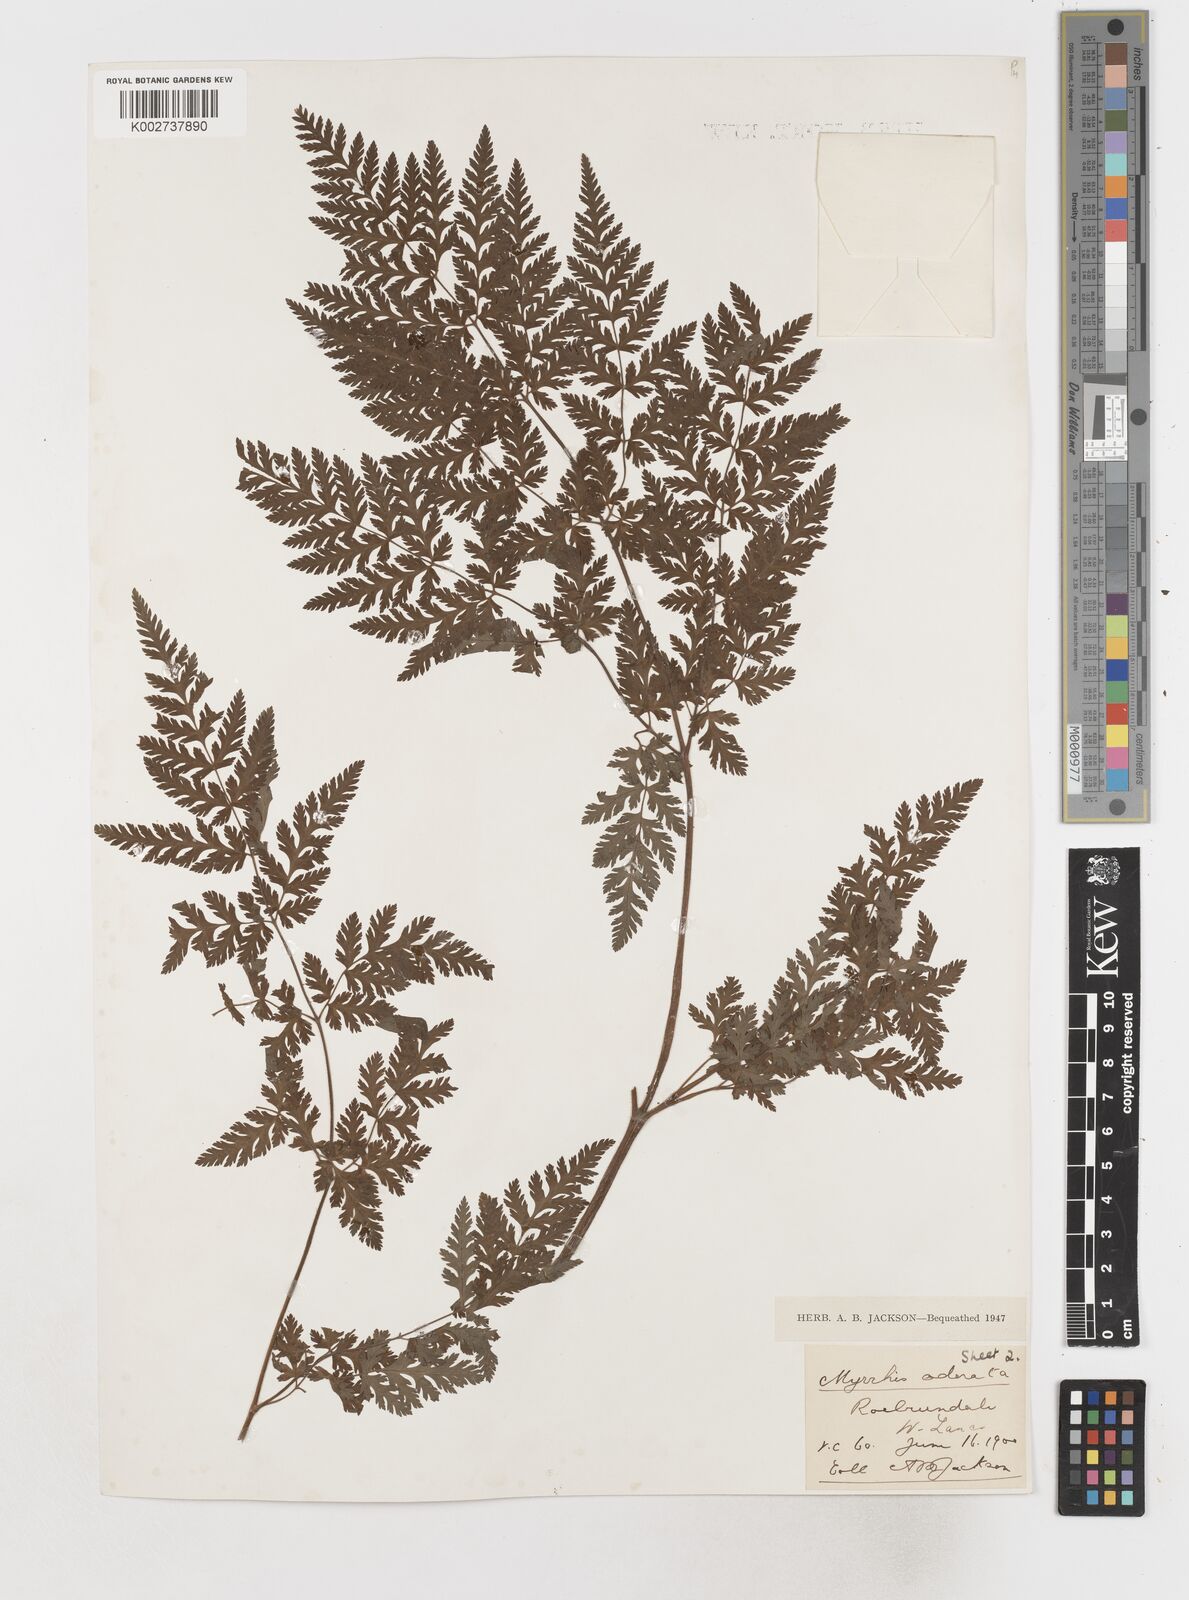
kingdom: Plantae
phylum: Tracheophyta
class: Magnoliopsida
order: Apiales
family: Apiaceae
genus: Myrrhis
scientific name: Myrrhis odorata
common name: Sweet cicely
